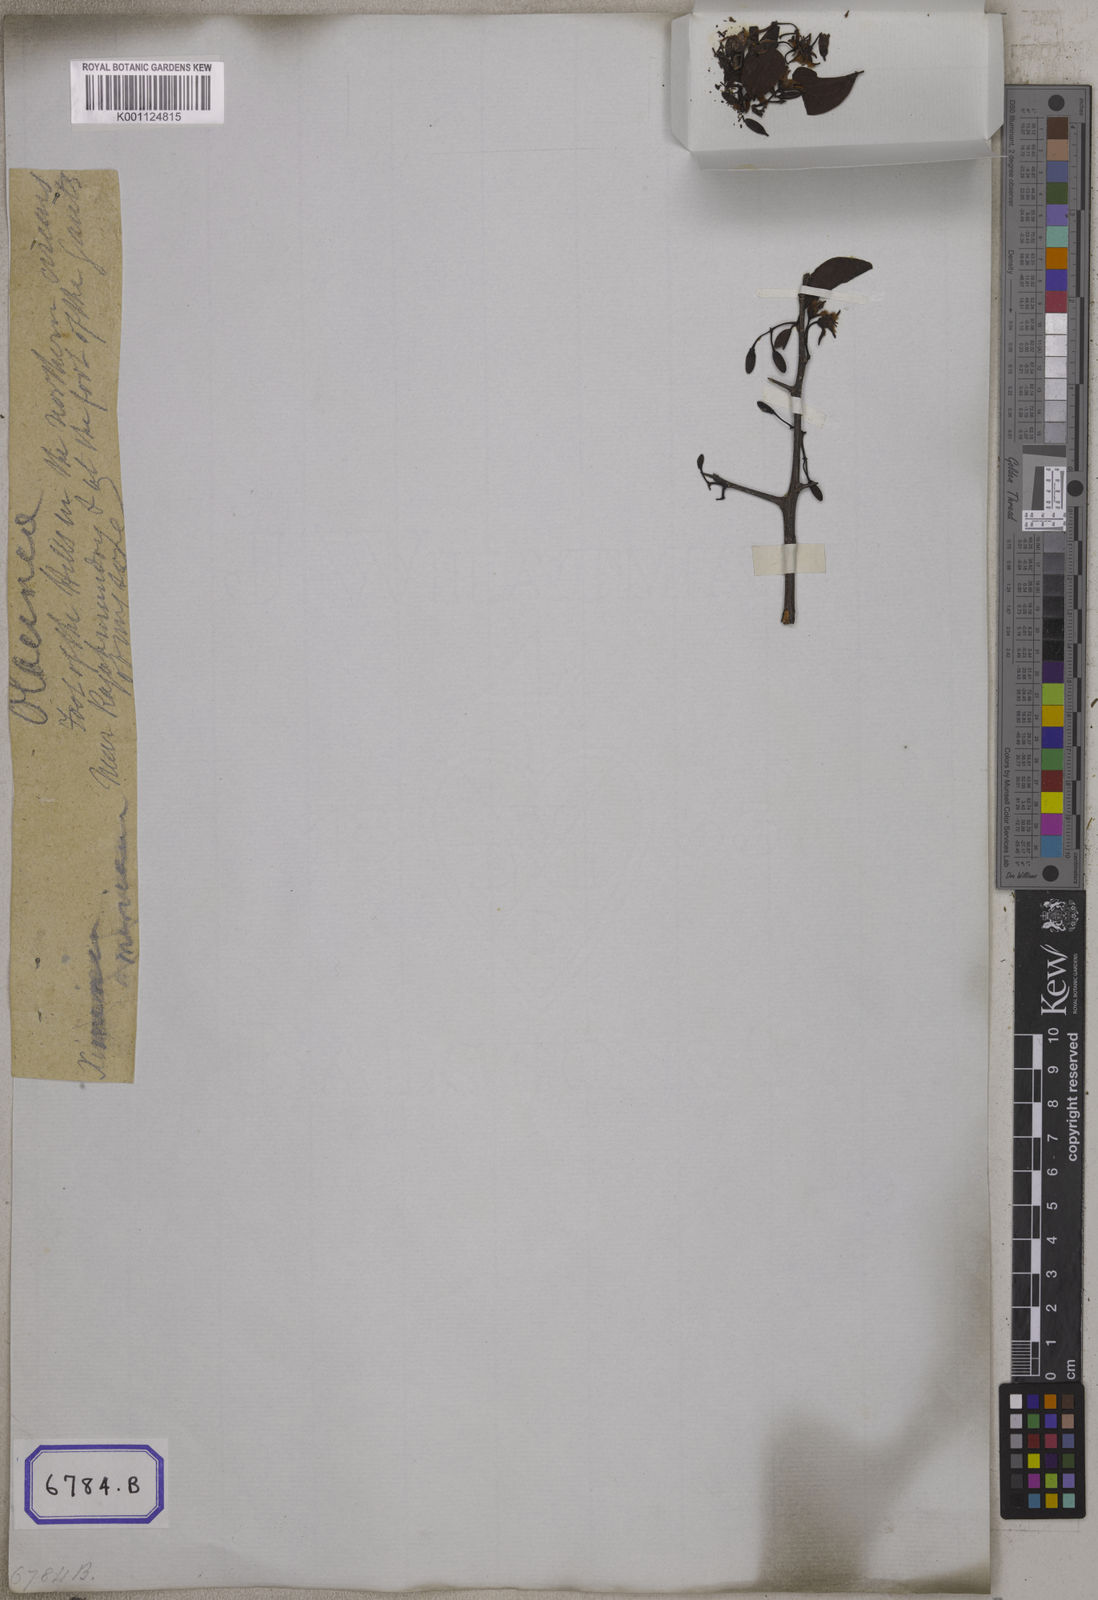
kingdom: Plantae
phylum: Tracheophyta
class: Magnoliopsida
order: Santalales
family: Ximeniaceae
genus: Ximenia
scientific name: Ximenia americana
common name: Tallowwood
